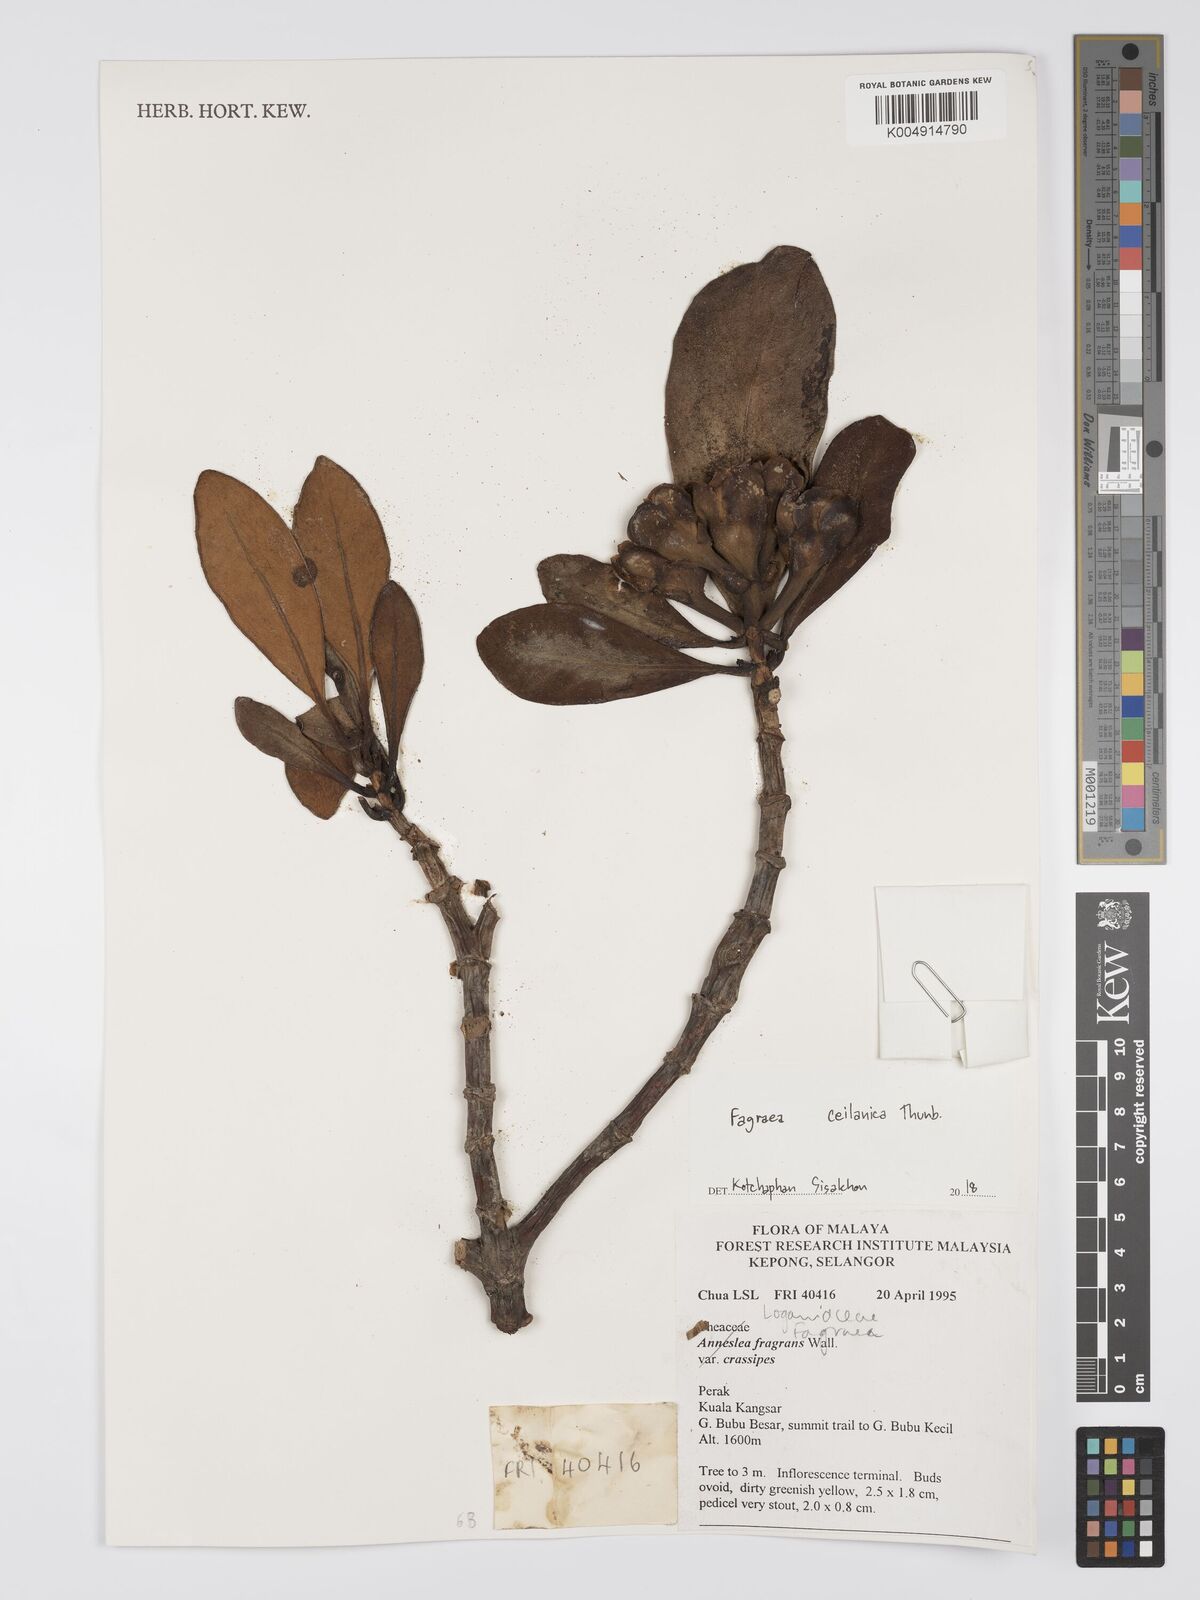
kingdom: Plantae
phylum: Tracheophyta
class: Magnoliopsida
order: Gentianales
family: Gentianaceae
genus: Fagraea
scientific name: Fagraea oblonga
